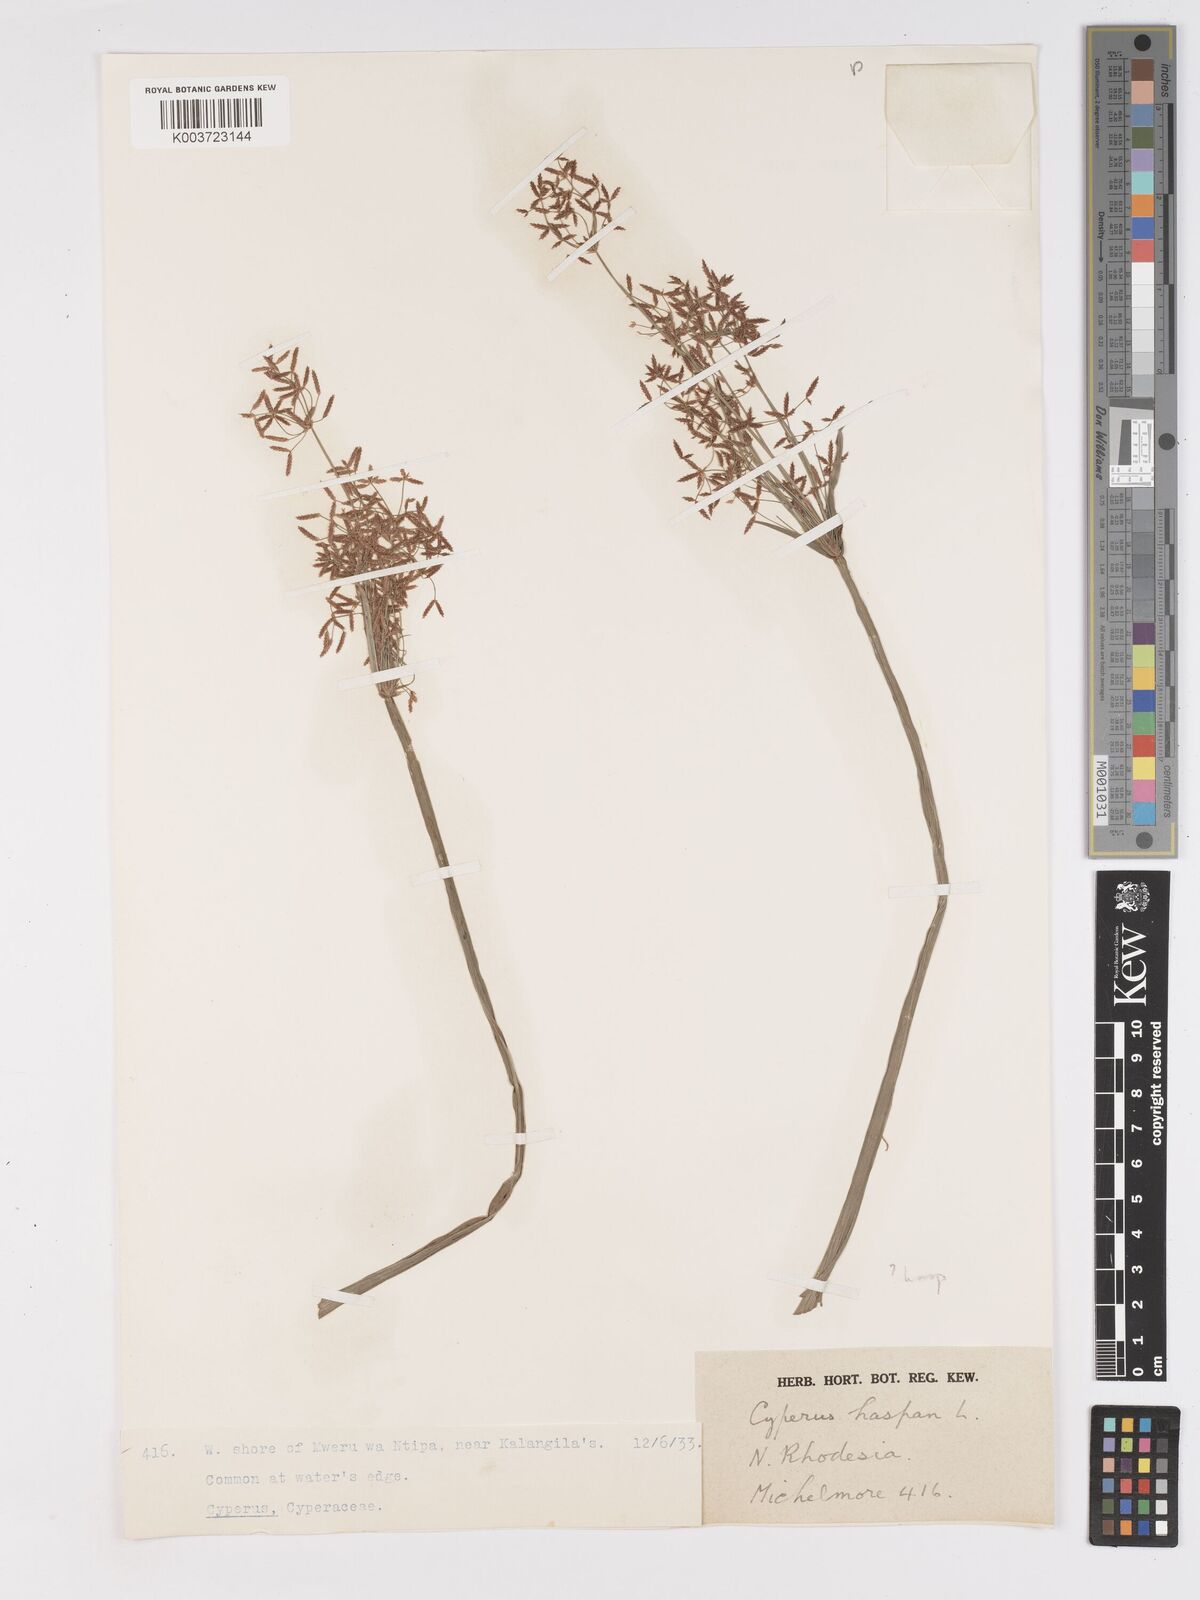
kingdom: Plantae
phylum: Tracheophyta
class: Liliopsida
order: Poales
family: Cyperaceae
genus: Cyperus
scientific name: Cyperus haspan
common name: Haspan flatsedge
